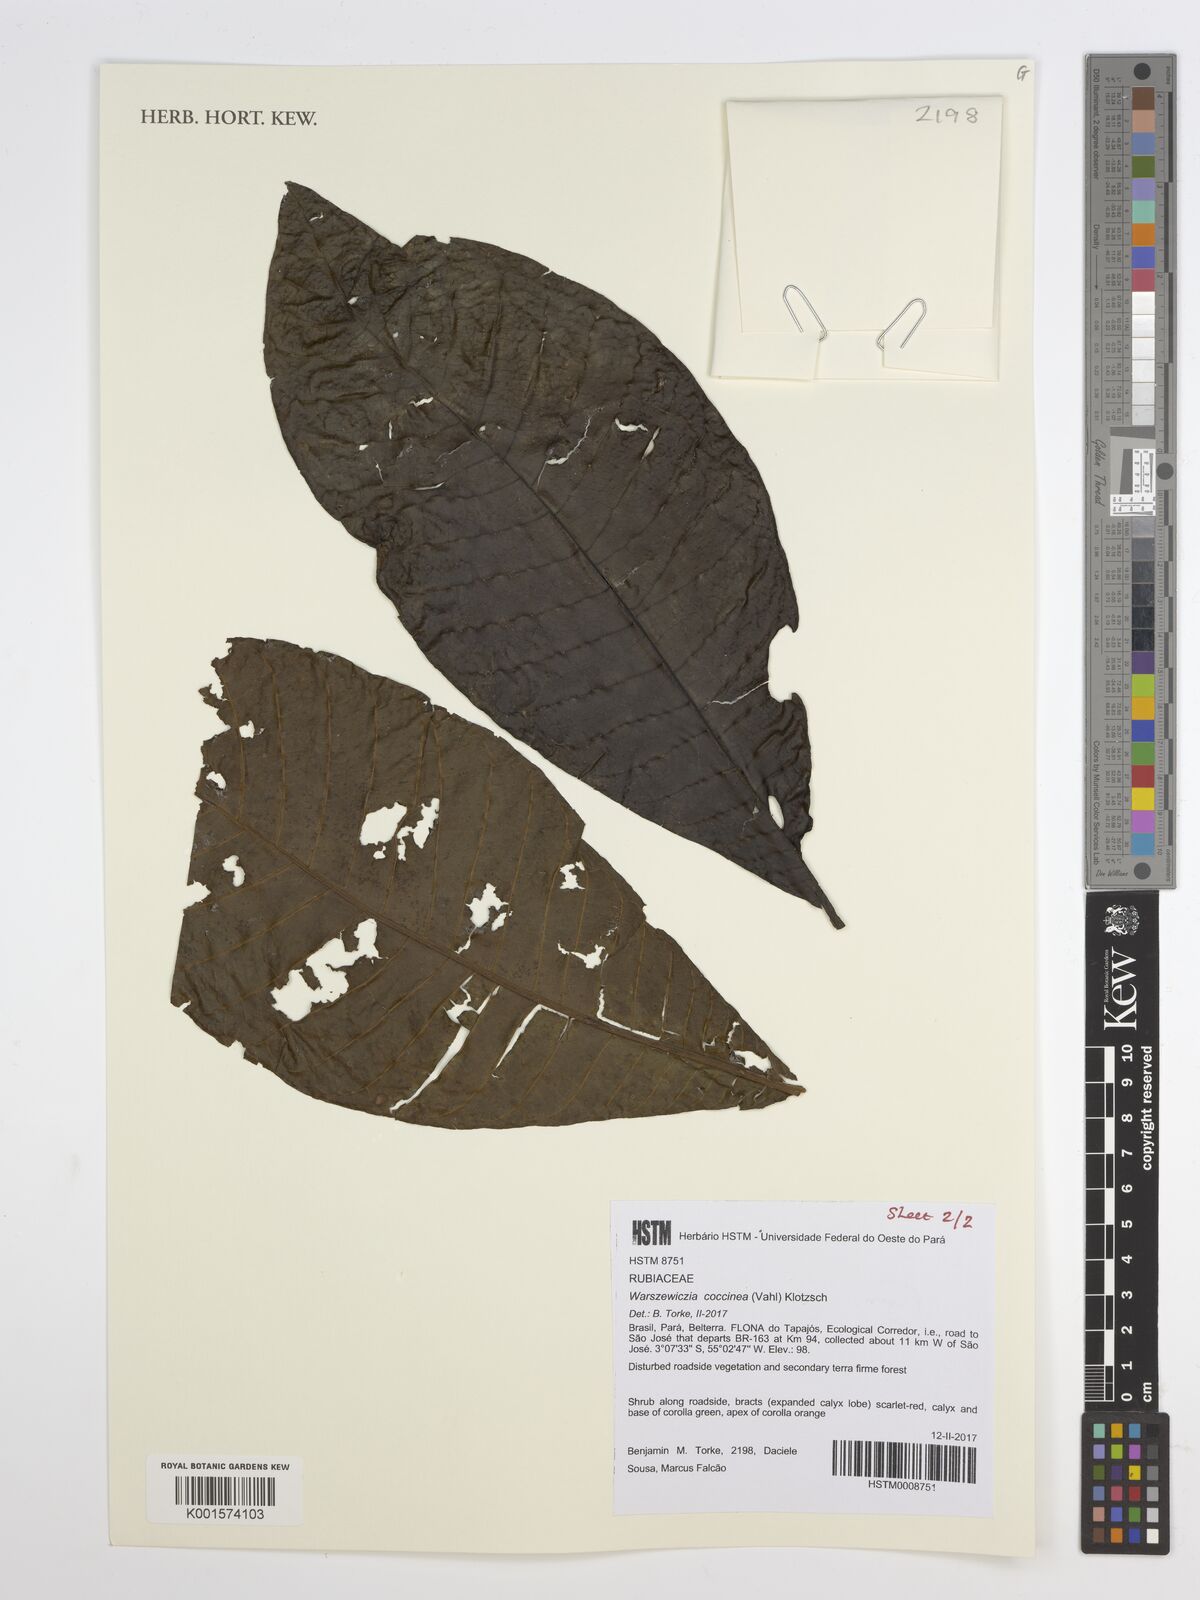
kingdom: Plantae
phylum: Tracheophyta
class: Magnoliopsida
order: Gentianales
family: Rubiaceae
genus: Warszewiczia
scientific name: Warszewiczia coccinea
